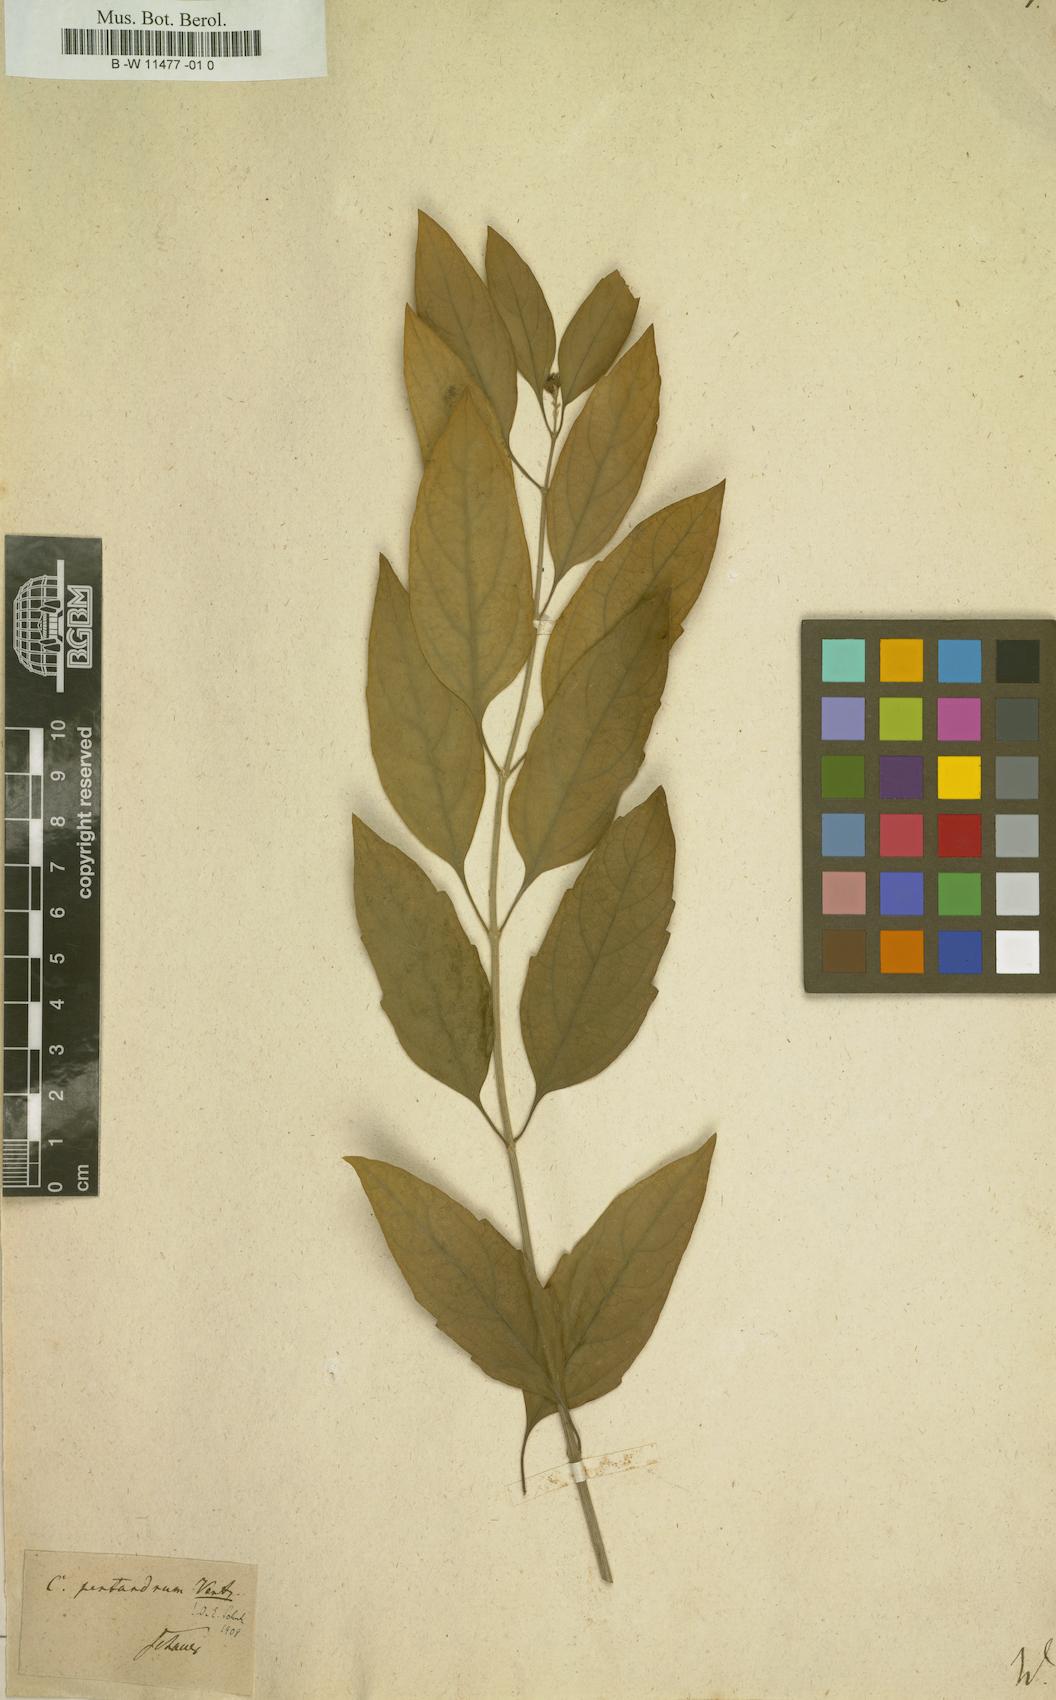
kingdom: Plantae
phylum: Tracheophyta
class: Magnoliopsida
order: Lamiales
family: Verbenaceae
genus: Citharexylum
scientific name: Citharexylum spinosum
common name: Fiddlewood
